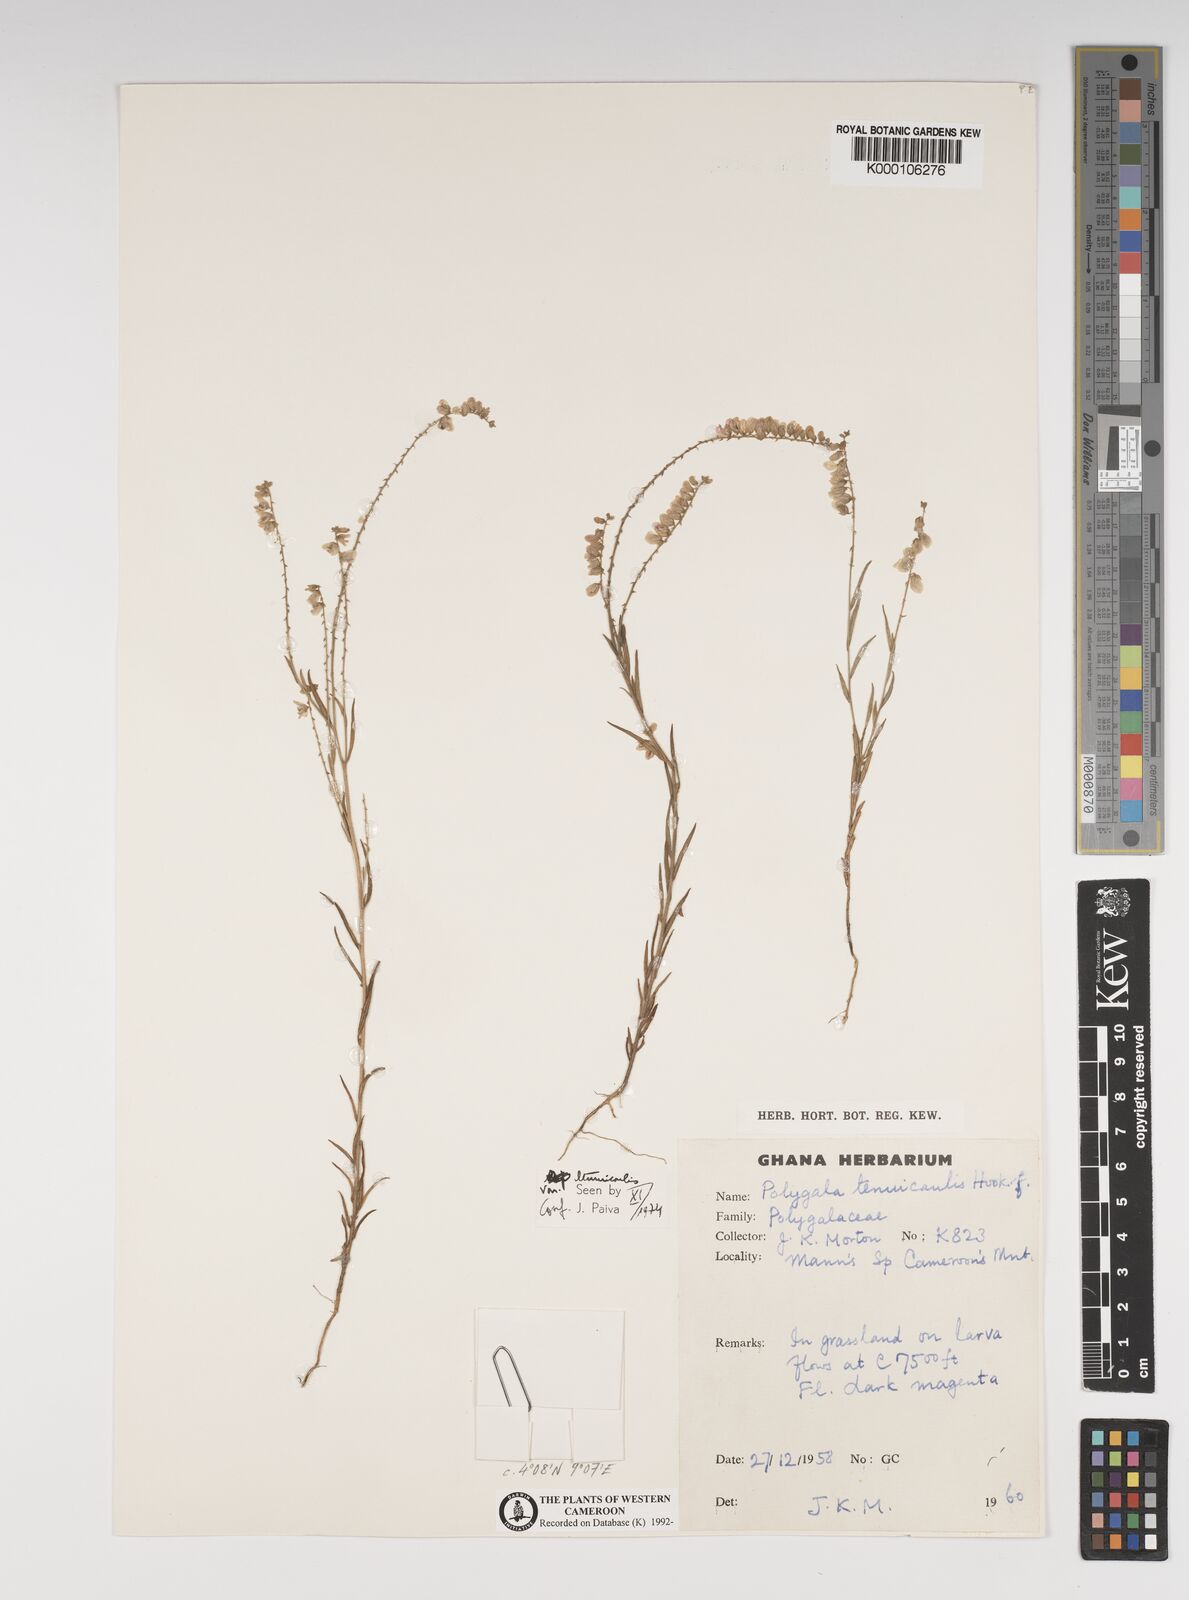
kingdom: Plantae
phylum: Tracheophyta
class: Magnoliopsida
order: Fabales
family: Polygalaceae
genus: Polygala
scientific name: Polygala tenuicaulis
